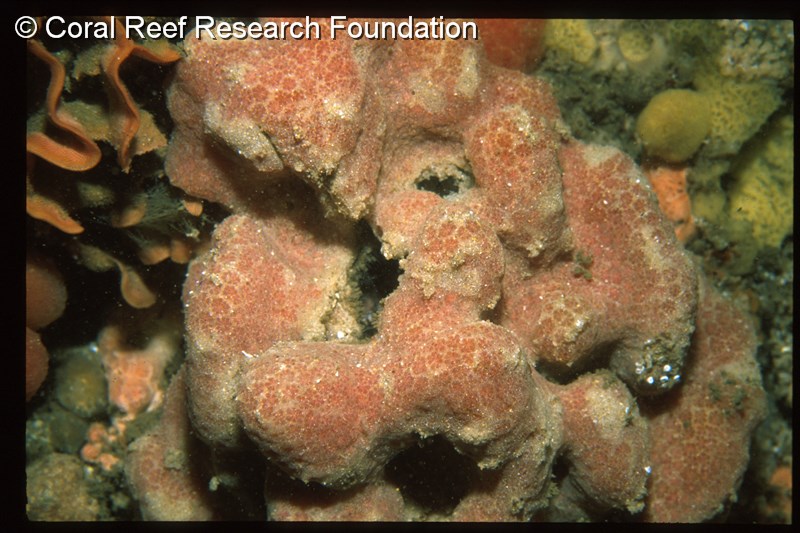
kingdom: Animalia
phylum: Chordata
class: Ascidiacea
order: Aplousobranchia
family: Polyclinidae
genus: Aplidium
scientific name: Aplidium mernooensis
